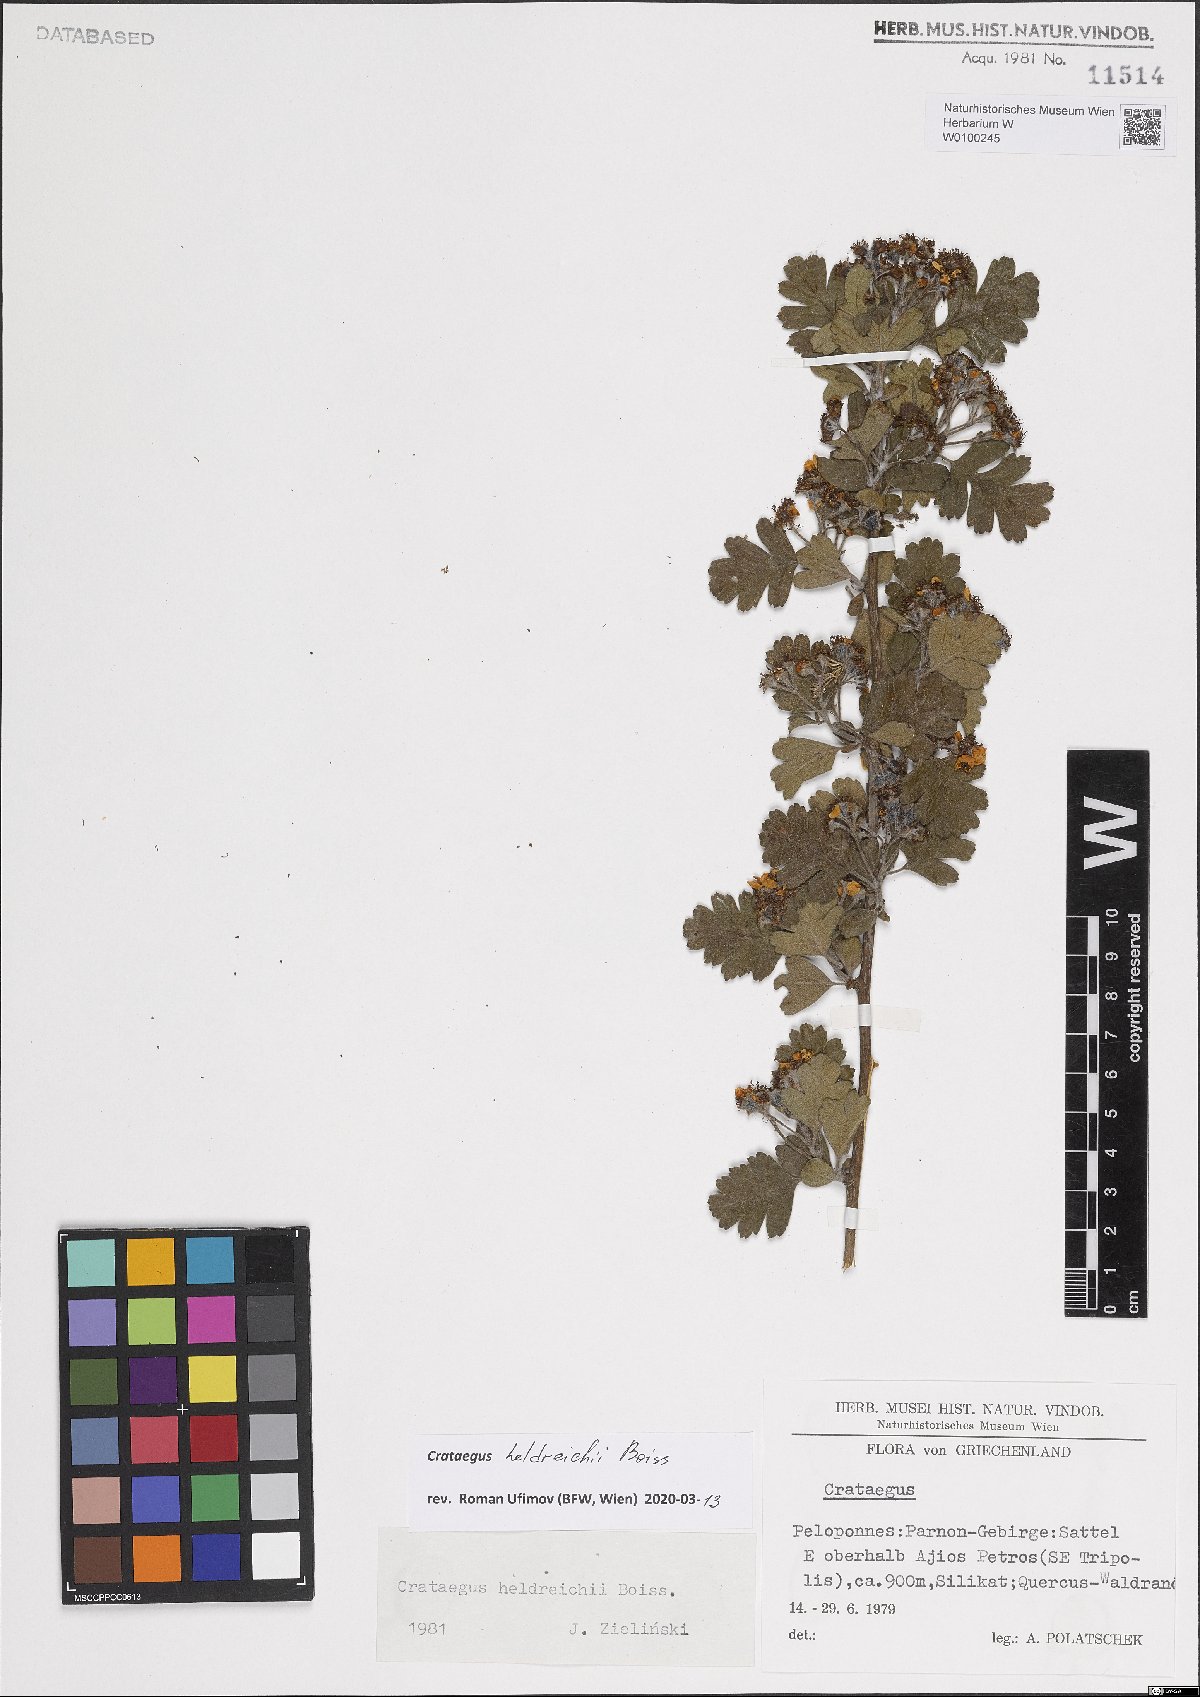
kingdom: Plantae
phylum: Tracheophyta
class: Magnoliopsida
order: Rosales
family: Rosaceae
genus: Crataegus
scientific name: Crataegus heldreichii
